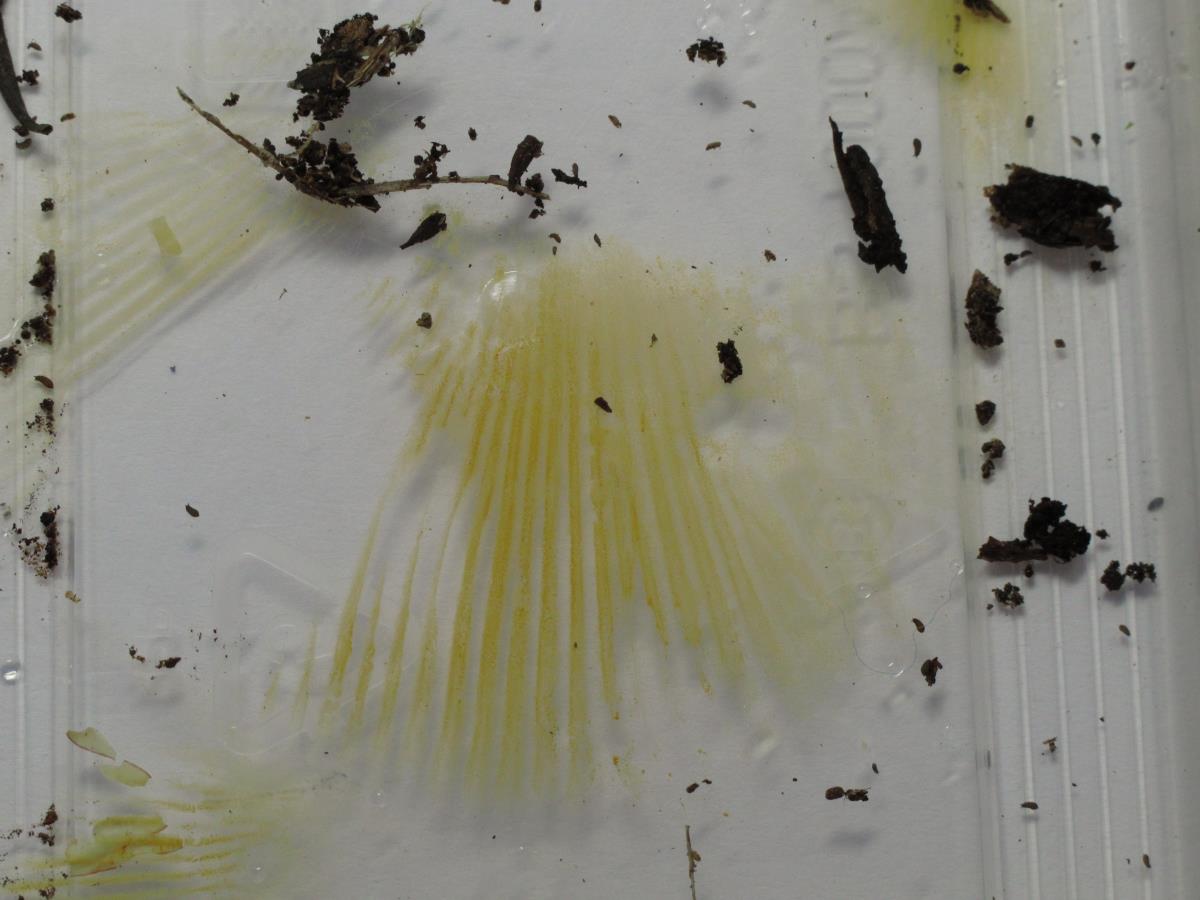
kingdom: Fungi
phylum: Basidiomycota
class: Agaricomycetes
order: Russulales
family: Russulaceae
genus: Russula
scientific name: Russula
